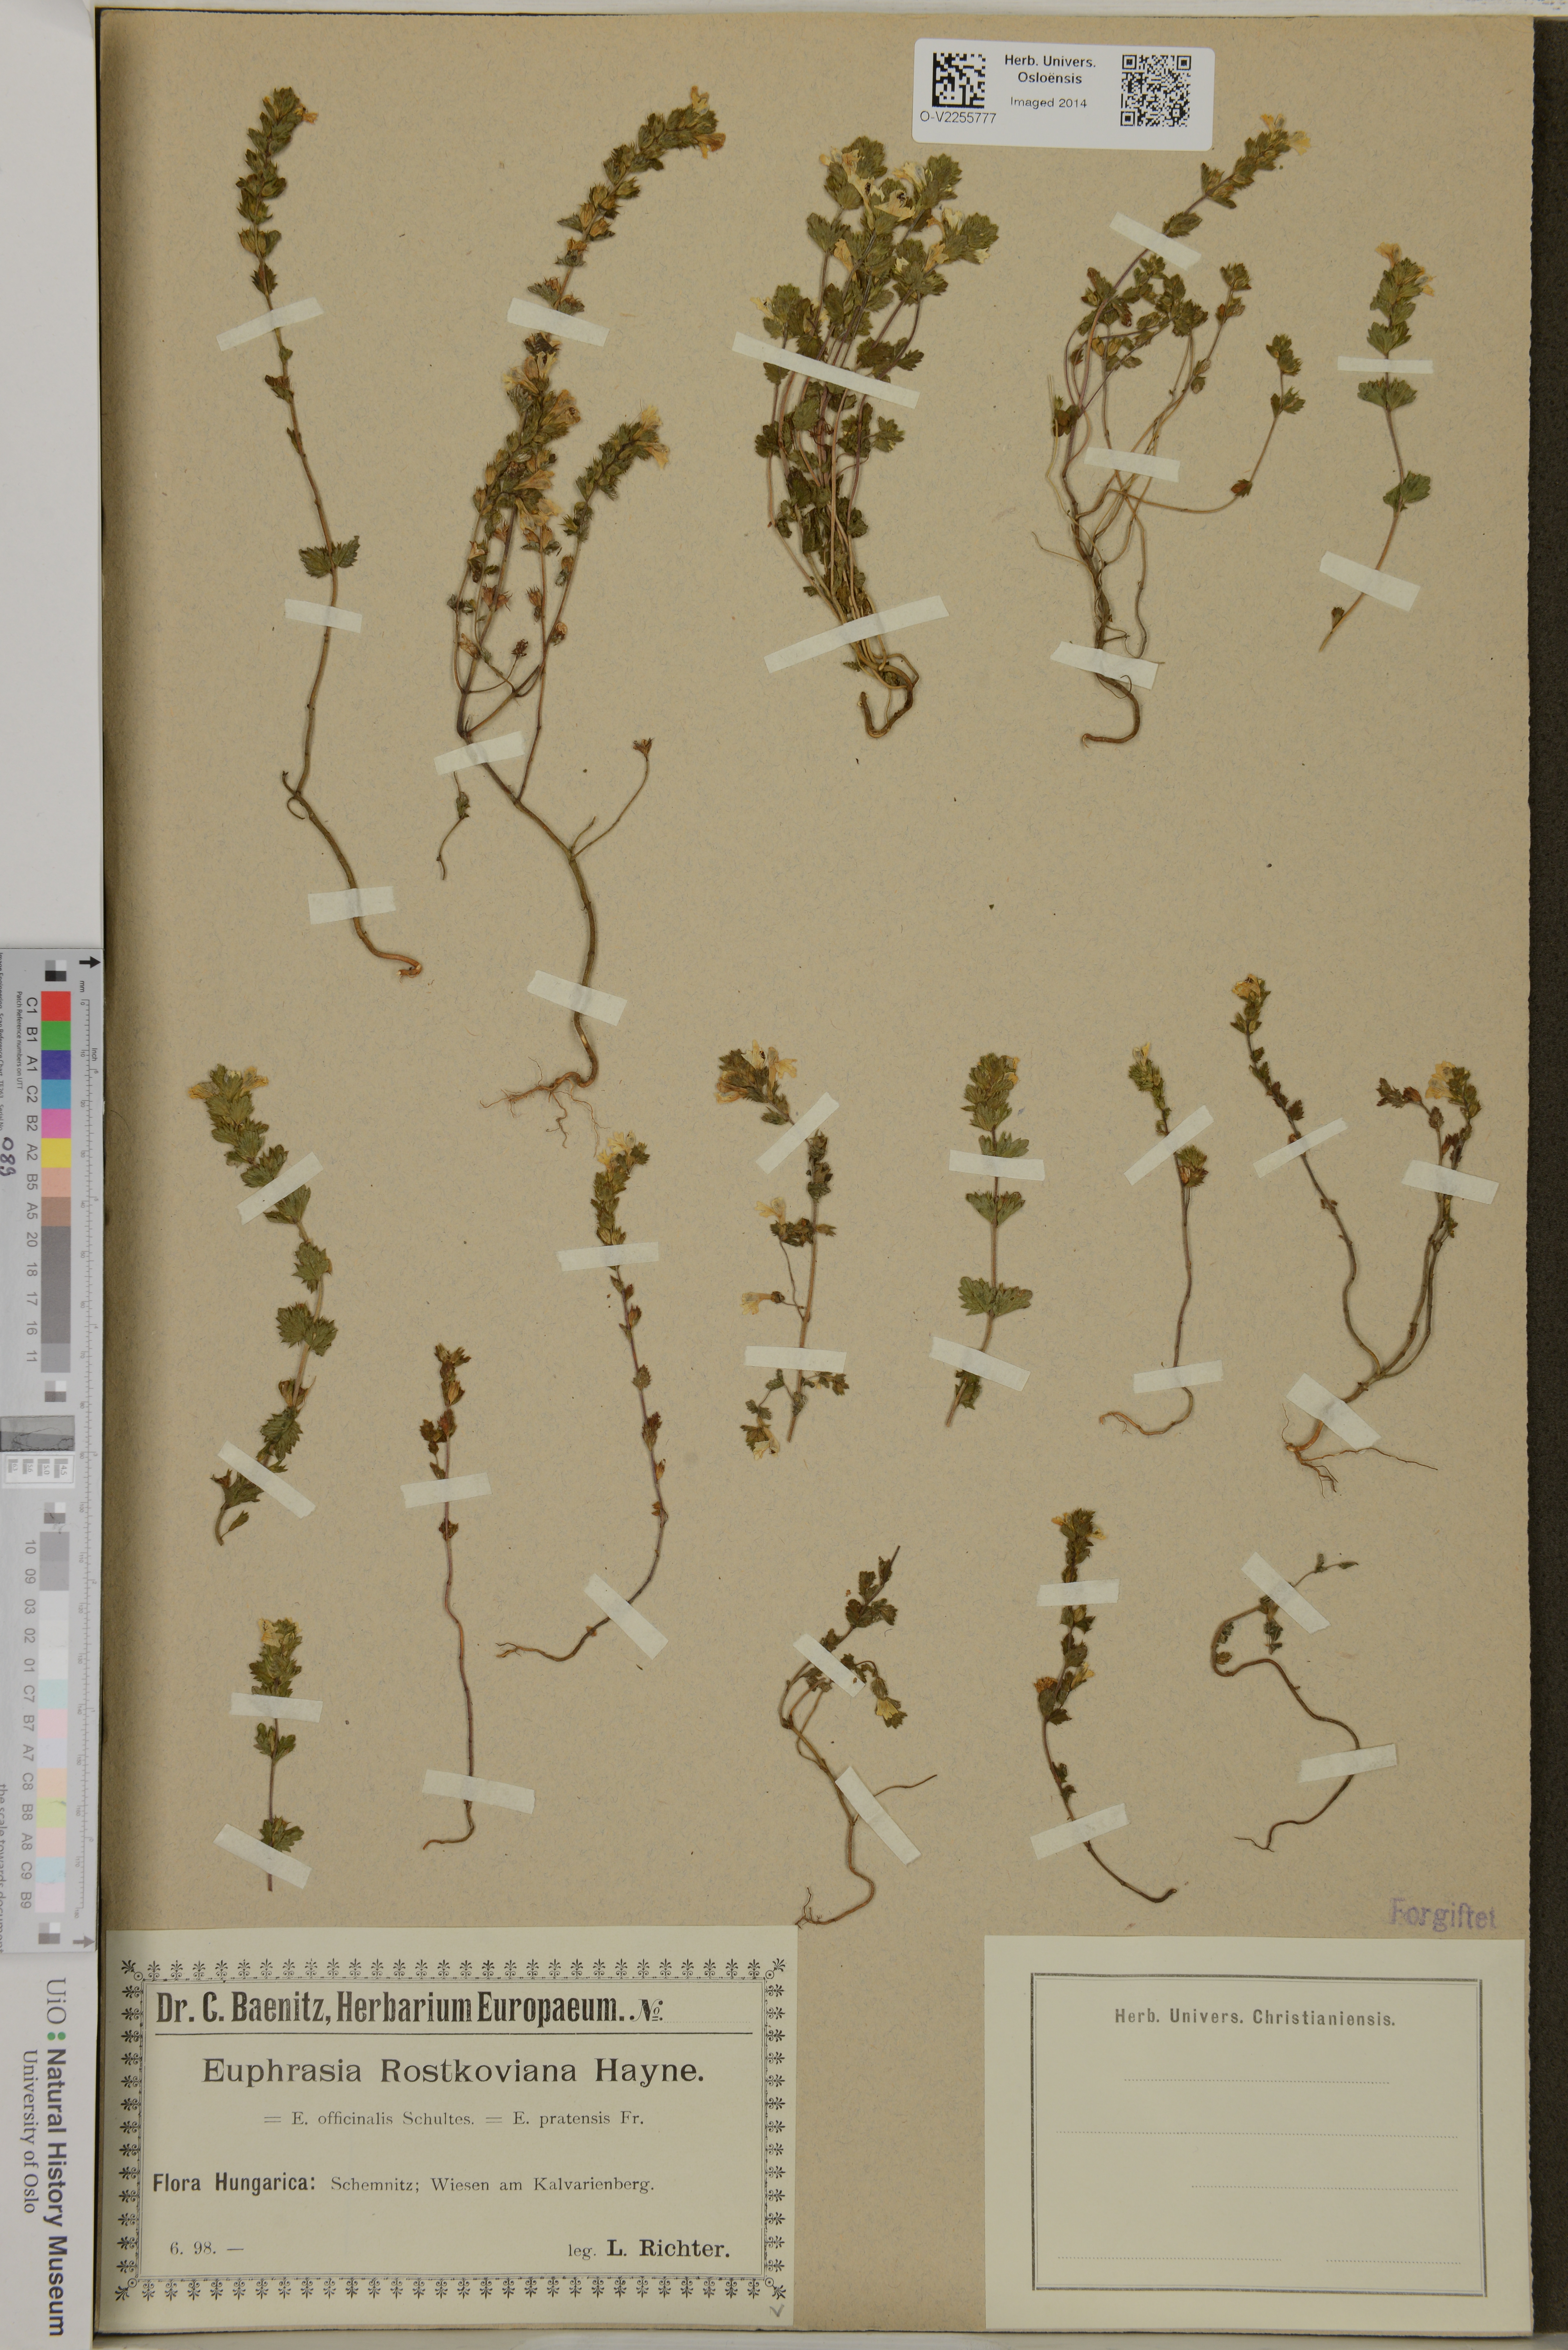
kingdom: Plantae
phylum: Tracheophyta
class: Magnoliopsida
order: Lamiales
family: Orobanchaceae
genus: Euphrasia
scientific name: Euphrasia officinalis
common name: Eyebright
